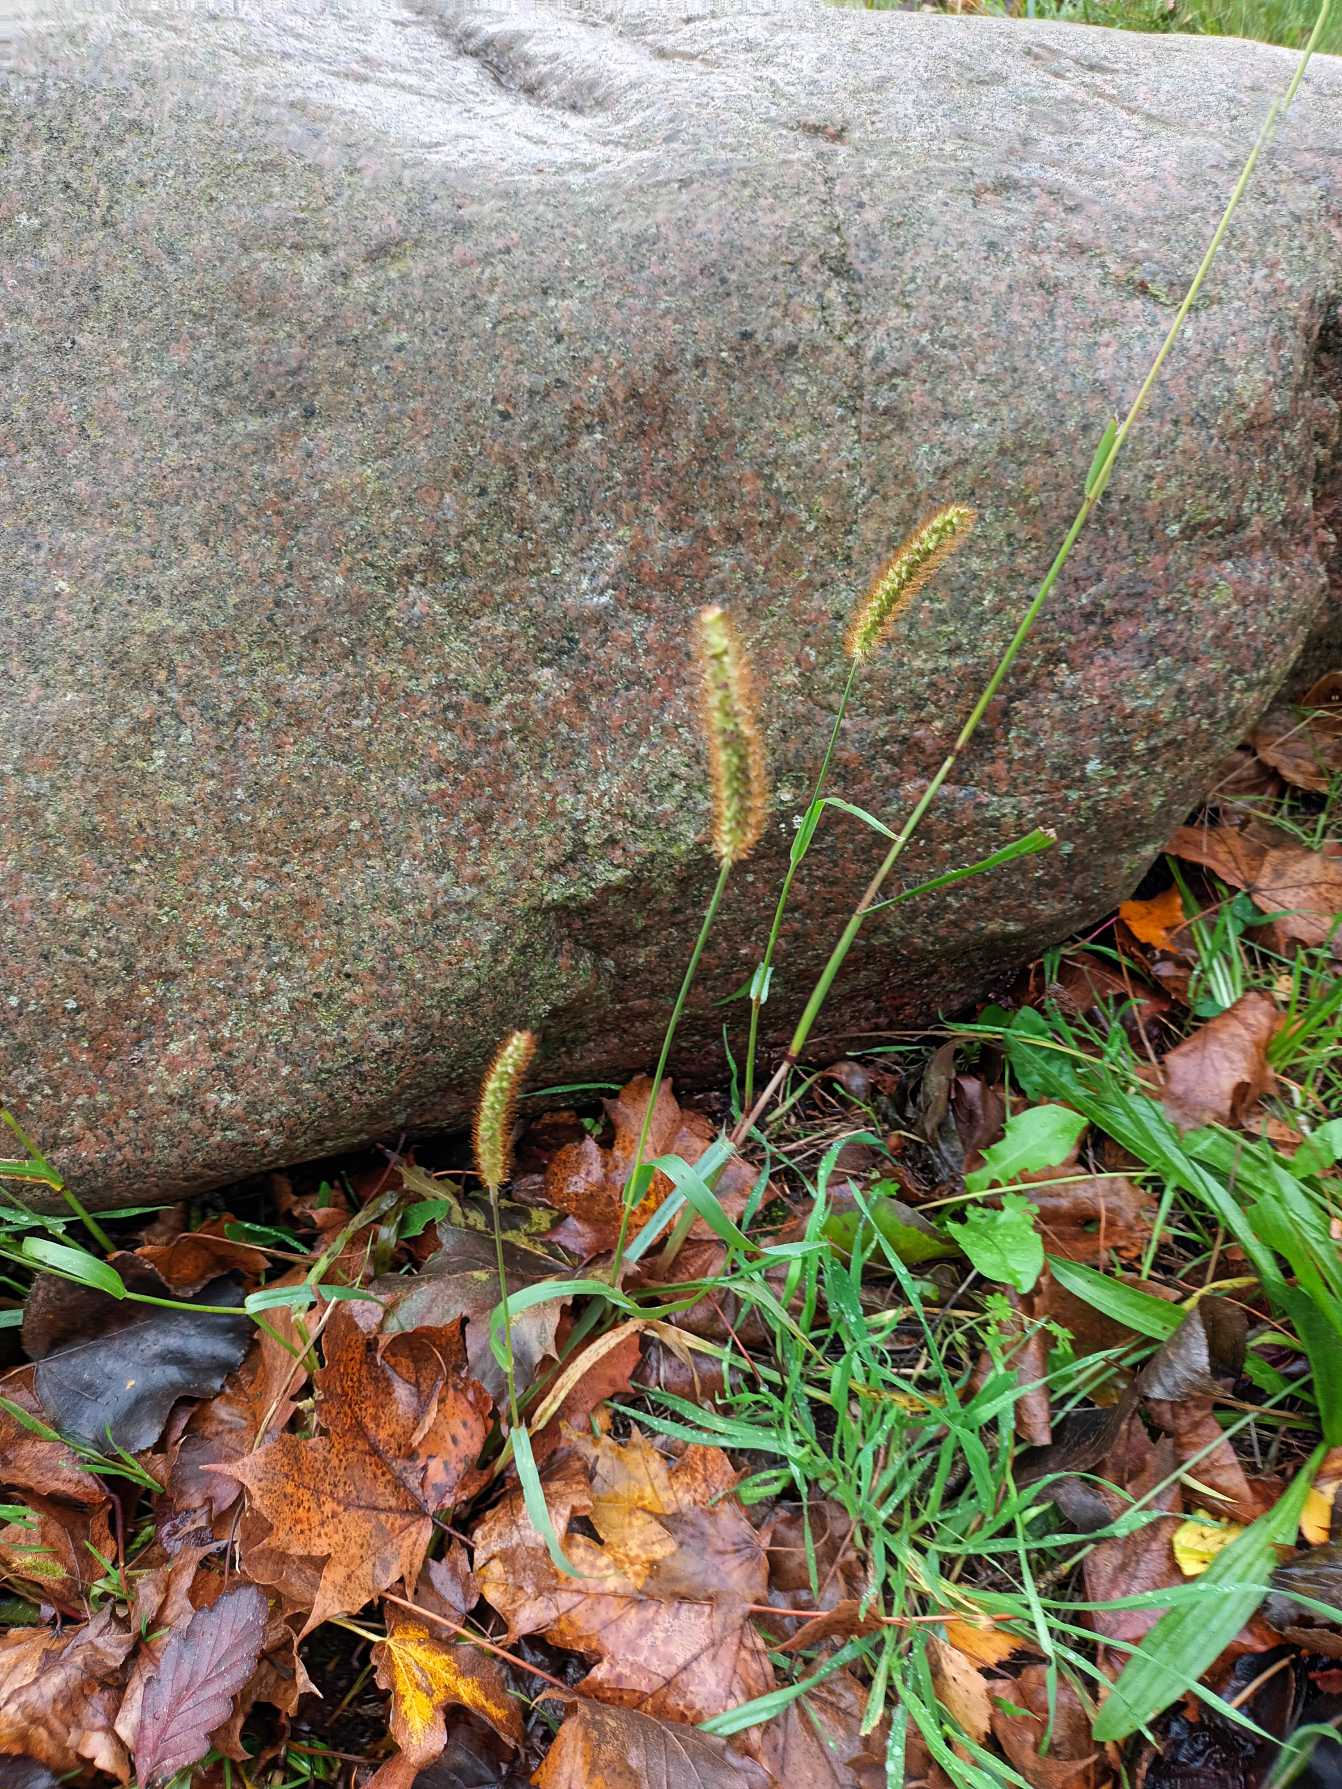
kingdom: Plantae
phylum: Tracheophyta
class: Liliopsida
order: Poales
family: Poaceae
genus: Setaria
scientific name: Setaria pumila
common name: Blågrøn skærmaks
